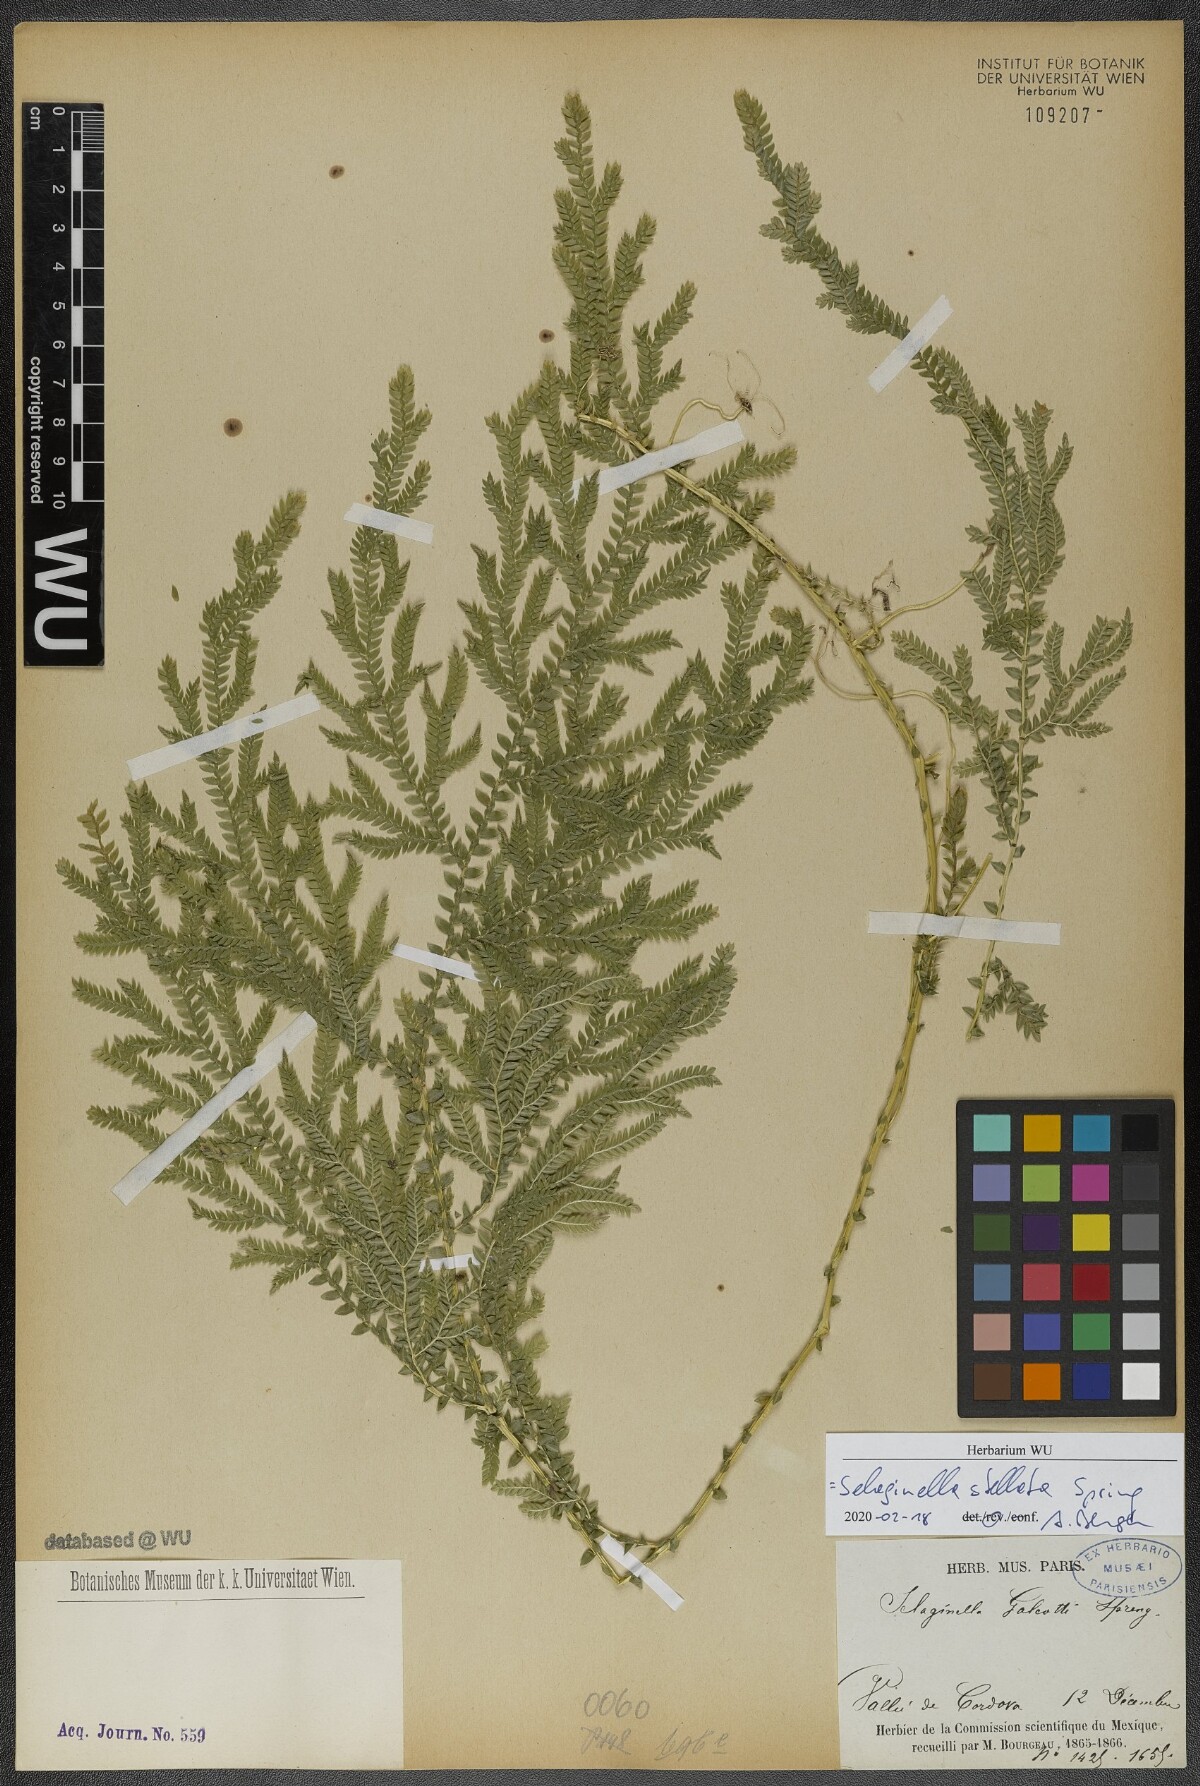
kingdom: Plantae
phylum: Tracheophyta
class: Lycopodiopsida
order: Selaginellales
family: Selaginellaceae
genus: Selaginella
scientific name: Selaginella stellata
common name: Starry spikemoss
